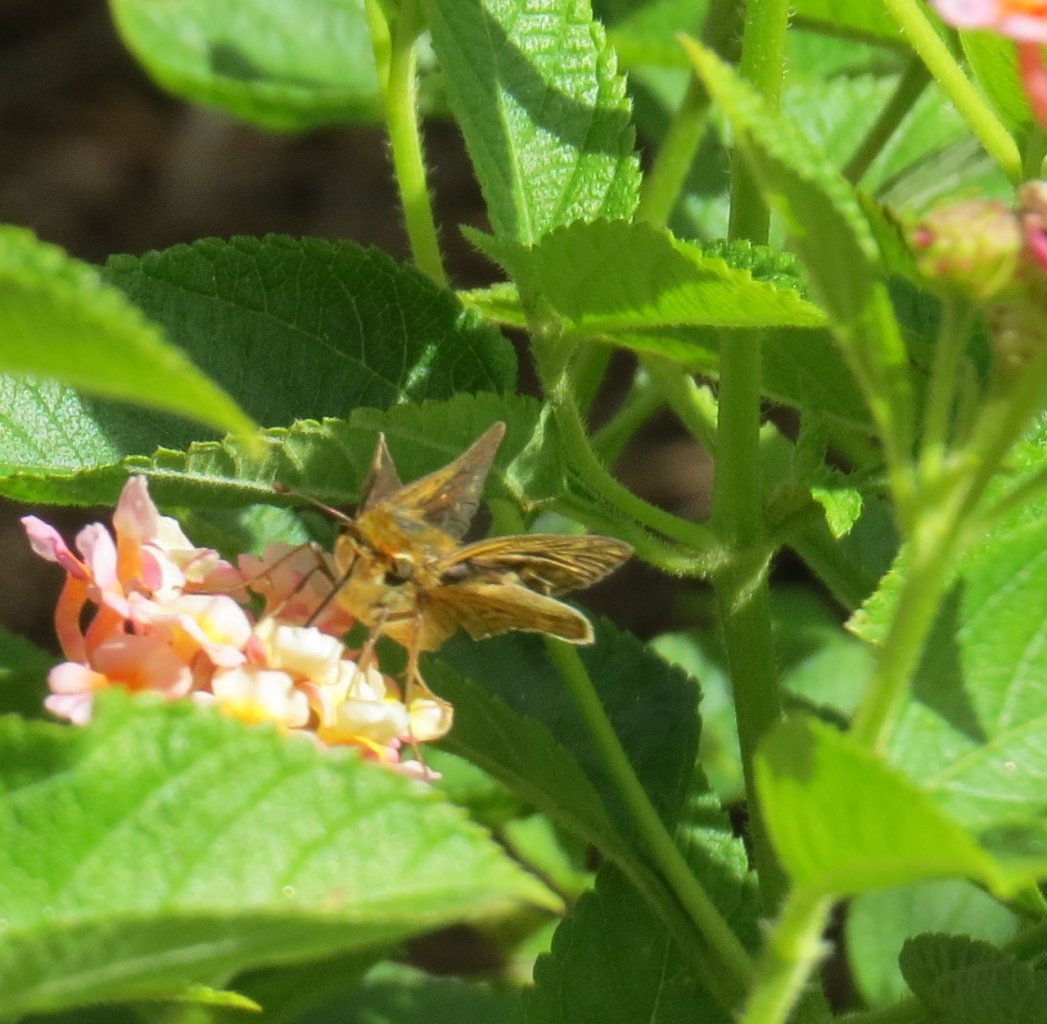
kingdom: Animalia
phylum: Arthropoda
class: Insecta
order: Lepidoptera
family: Hesperiidae
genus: Hylephila
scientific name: Hylephila phyleus
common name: Fiery Skipper
